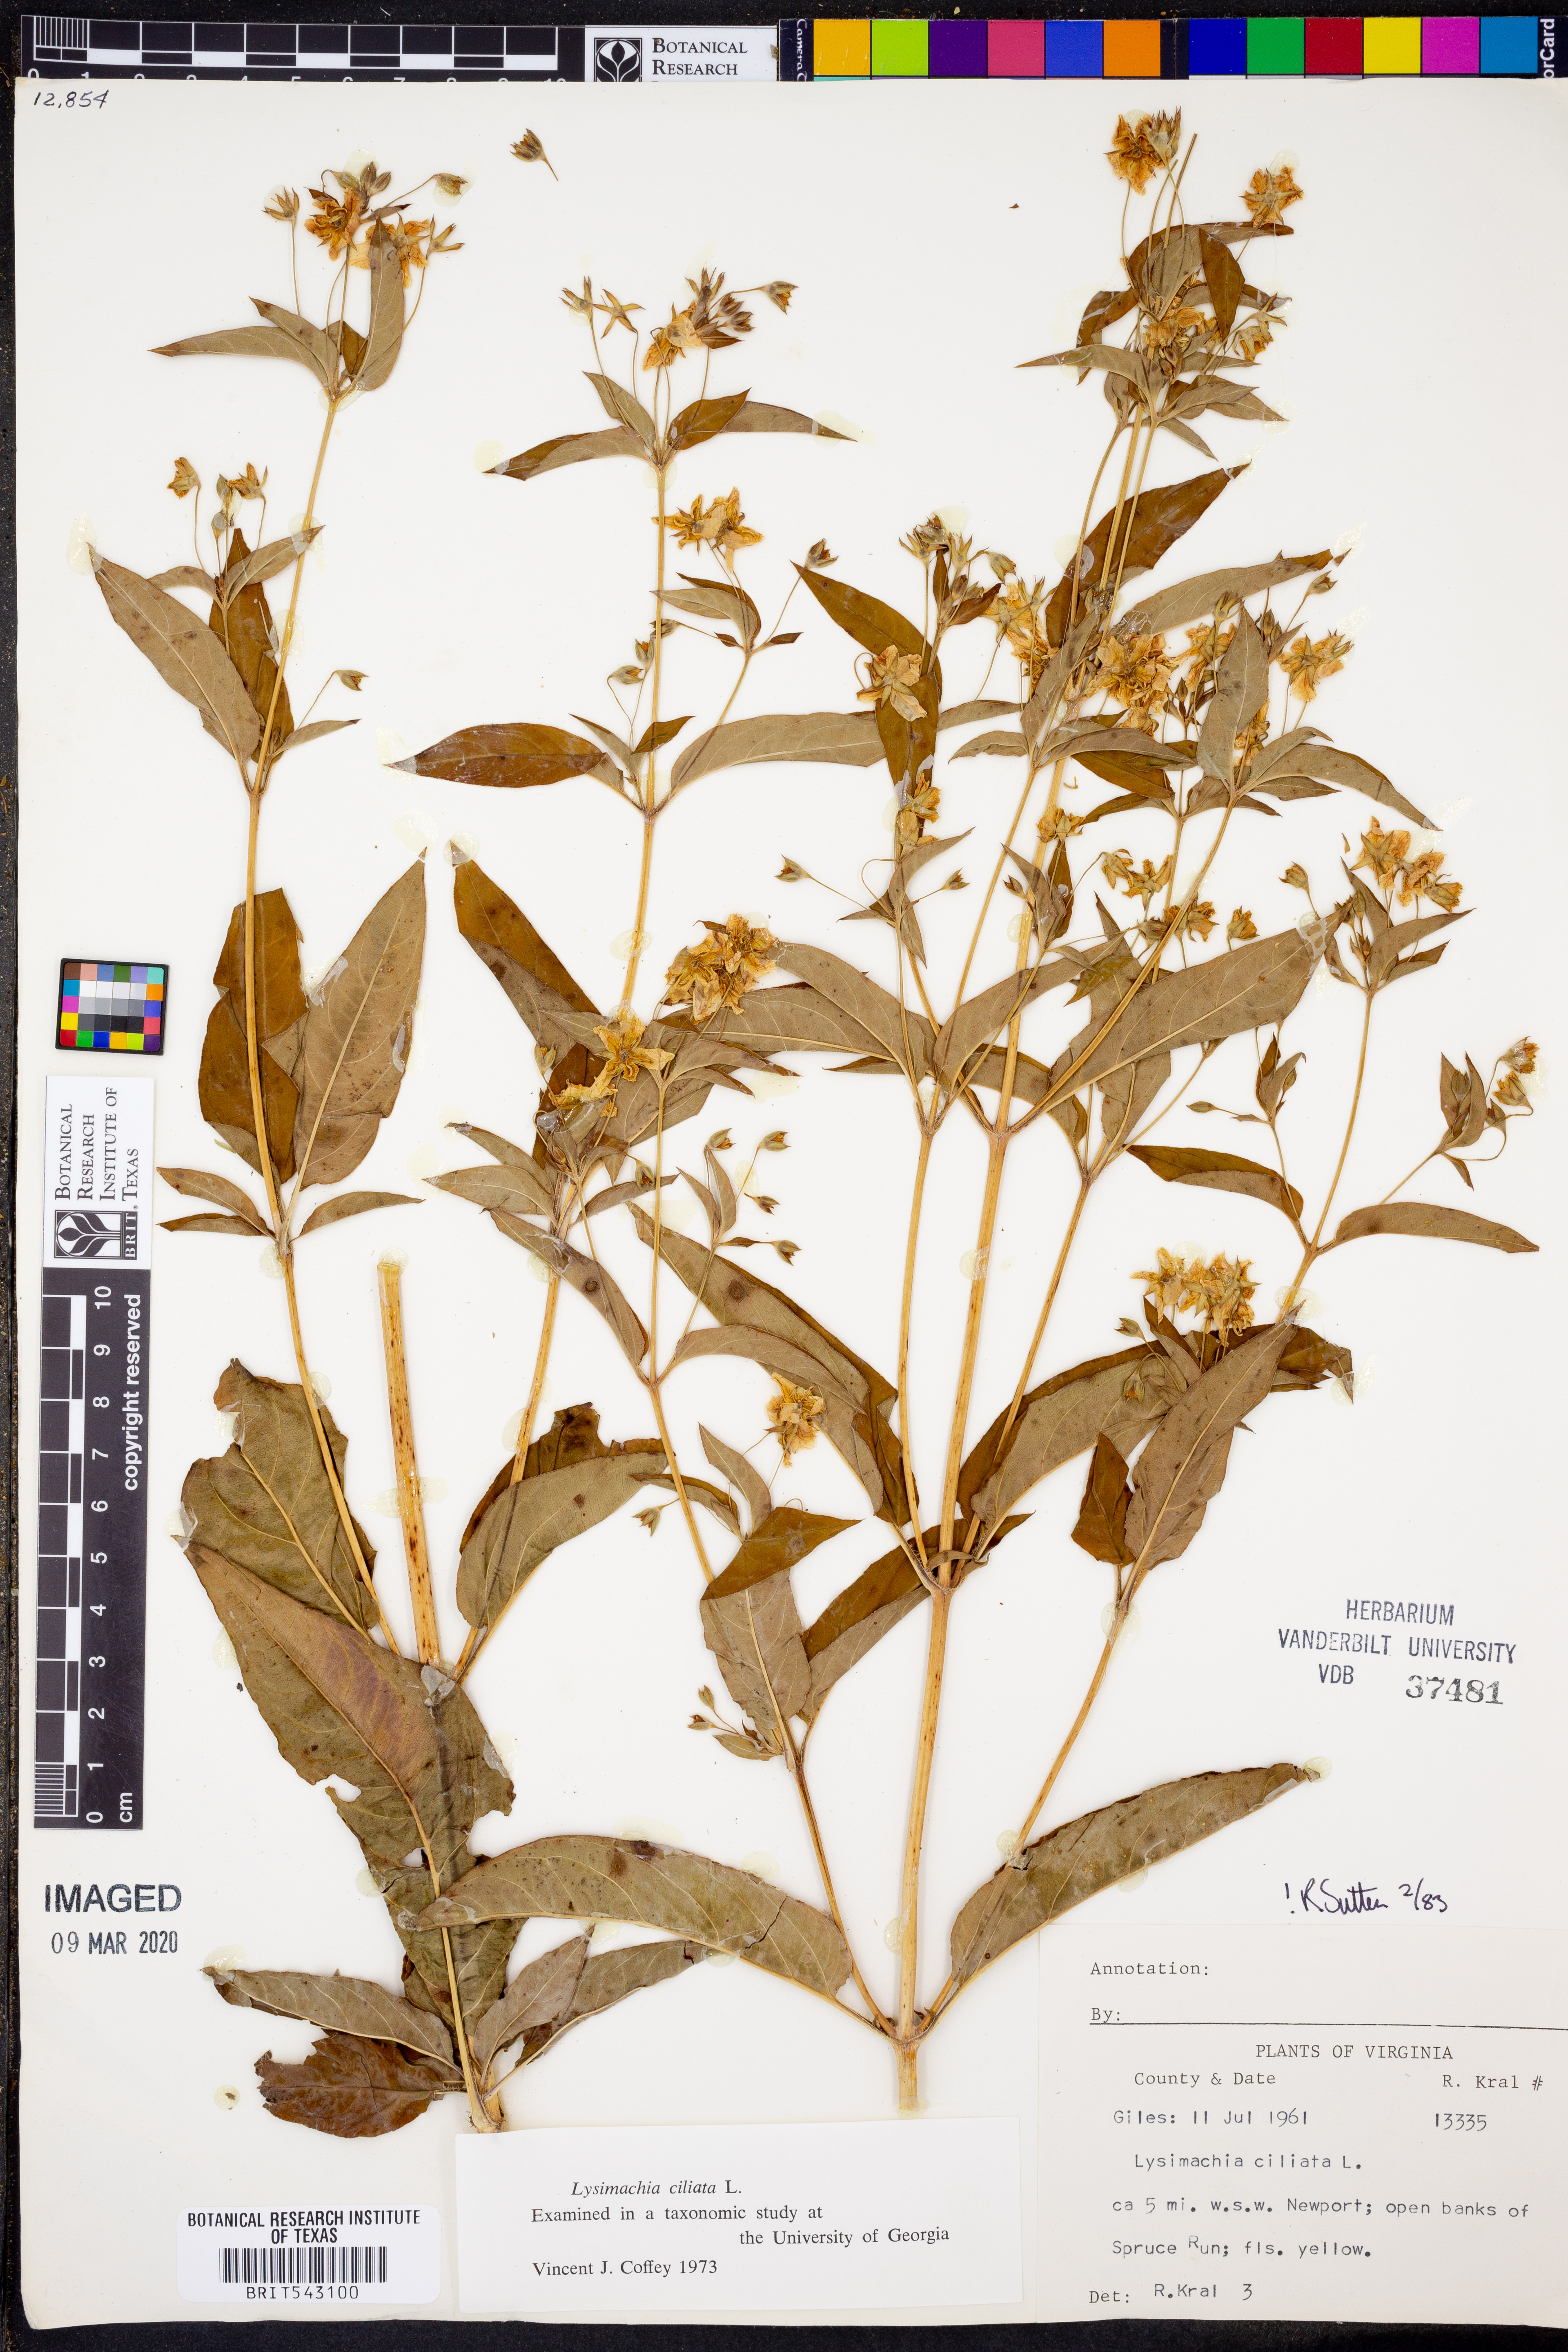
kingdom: Plantae
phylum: Tracheophyta
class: Magnoliopsida
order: Ericales
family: Primulaceae
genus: Lysimachia
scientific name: Lysimachia ciliata
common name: Fringed loosestrife
